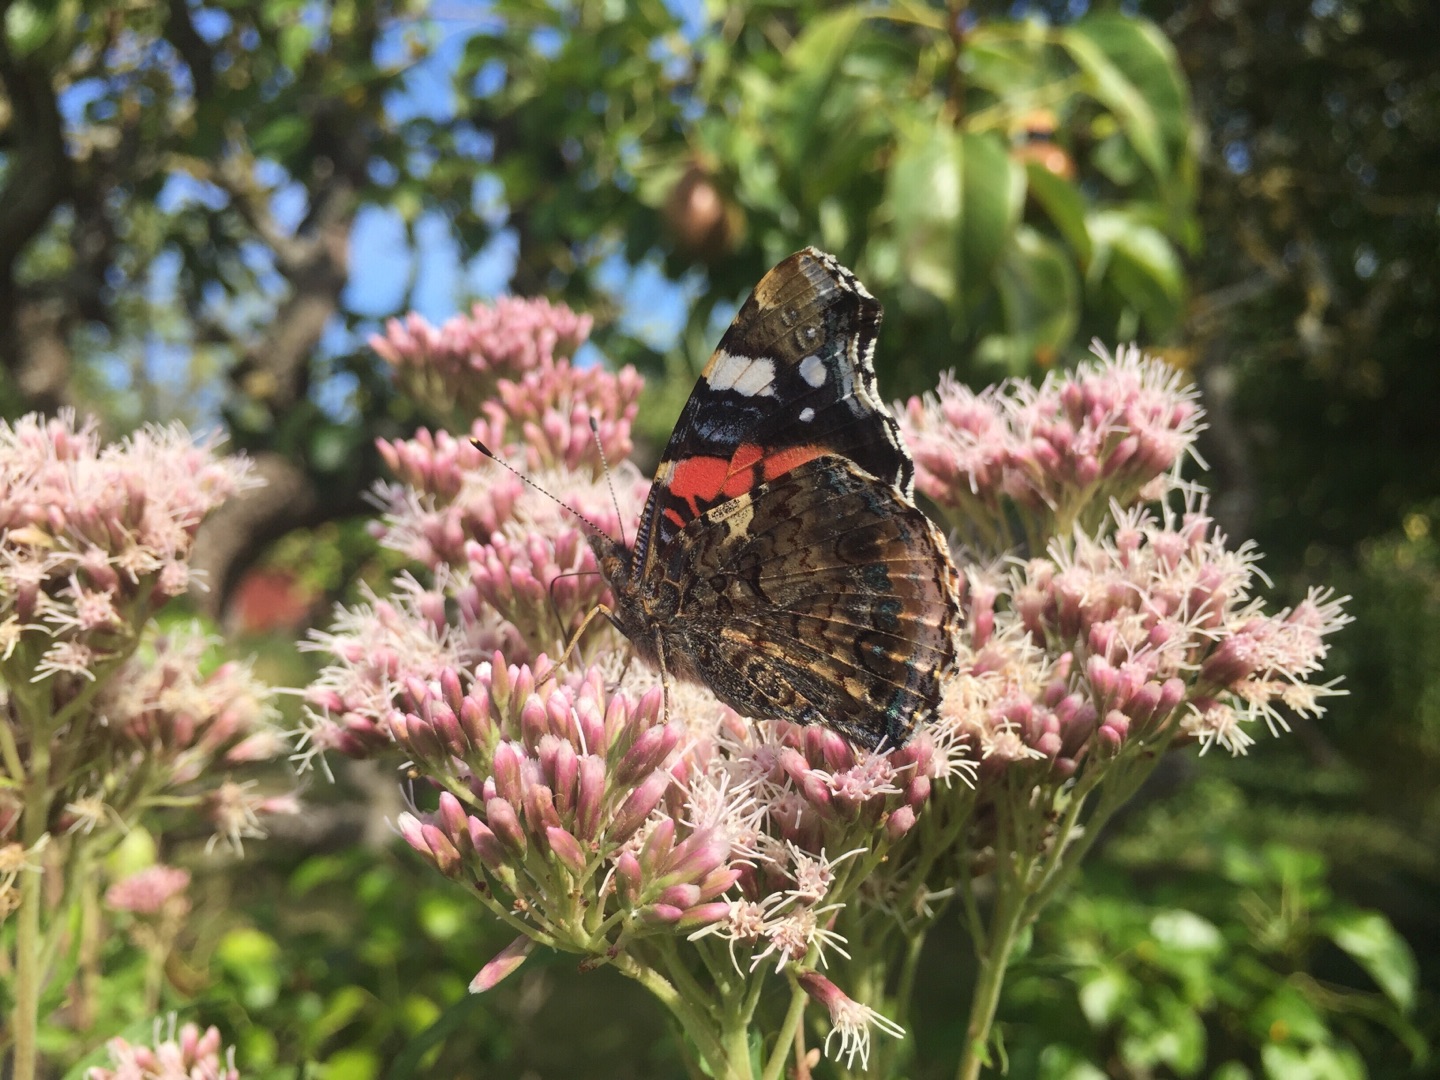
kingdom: Animalia
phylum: Arthropoda
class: Insecta
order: Lepidoptera
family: Nymphalidae
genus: Vanessa
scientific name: Vanessa atalanta
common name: Admiral
